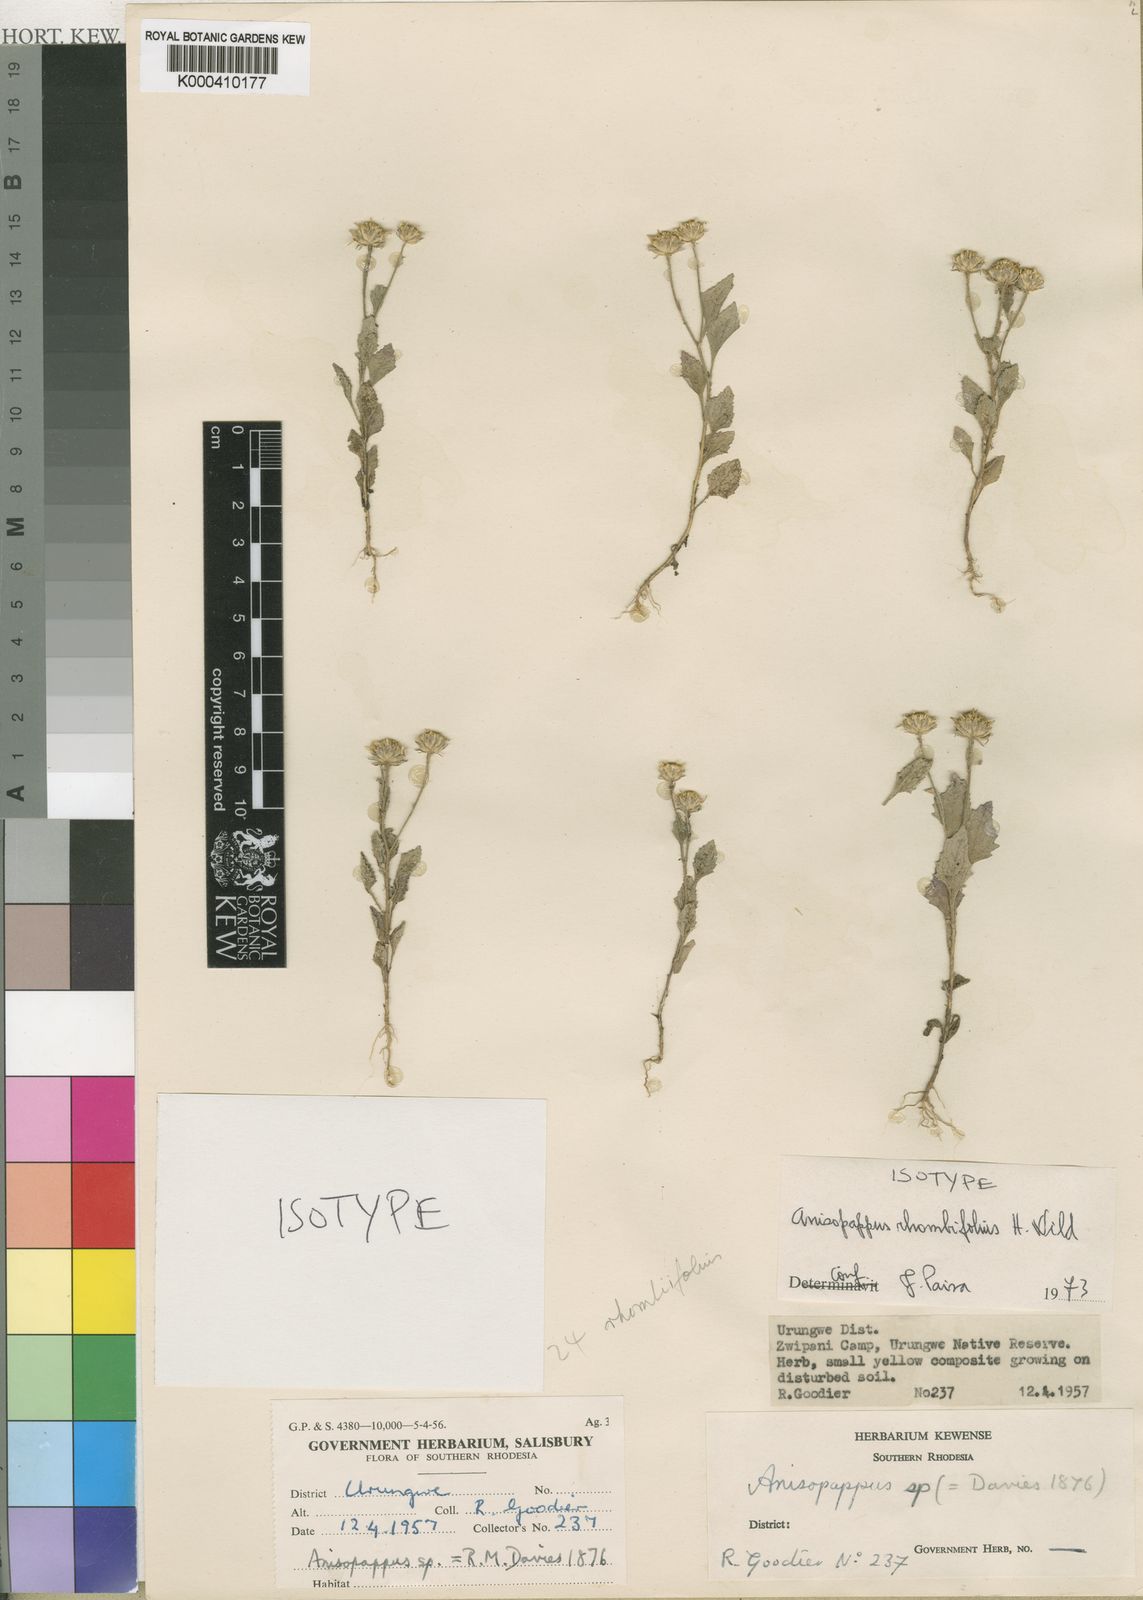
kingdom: Plantae
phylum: Tracheophyta
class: Magnoliopsida
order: Asterales
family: Asteraceae
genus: Anisopappus
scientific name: Anisopappus chinensis
